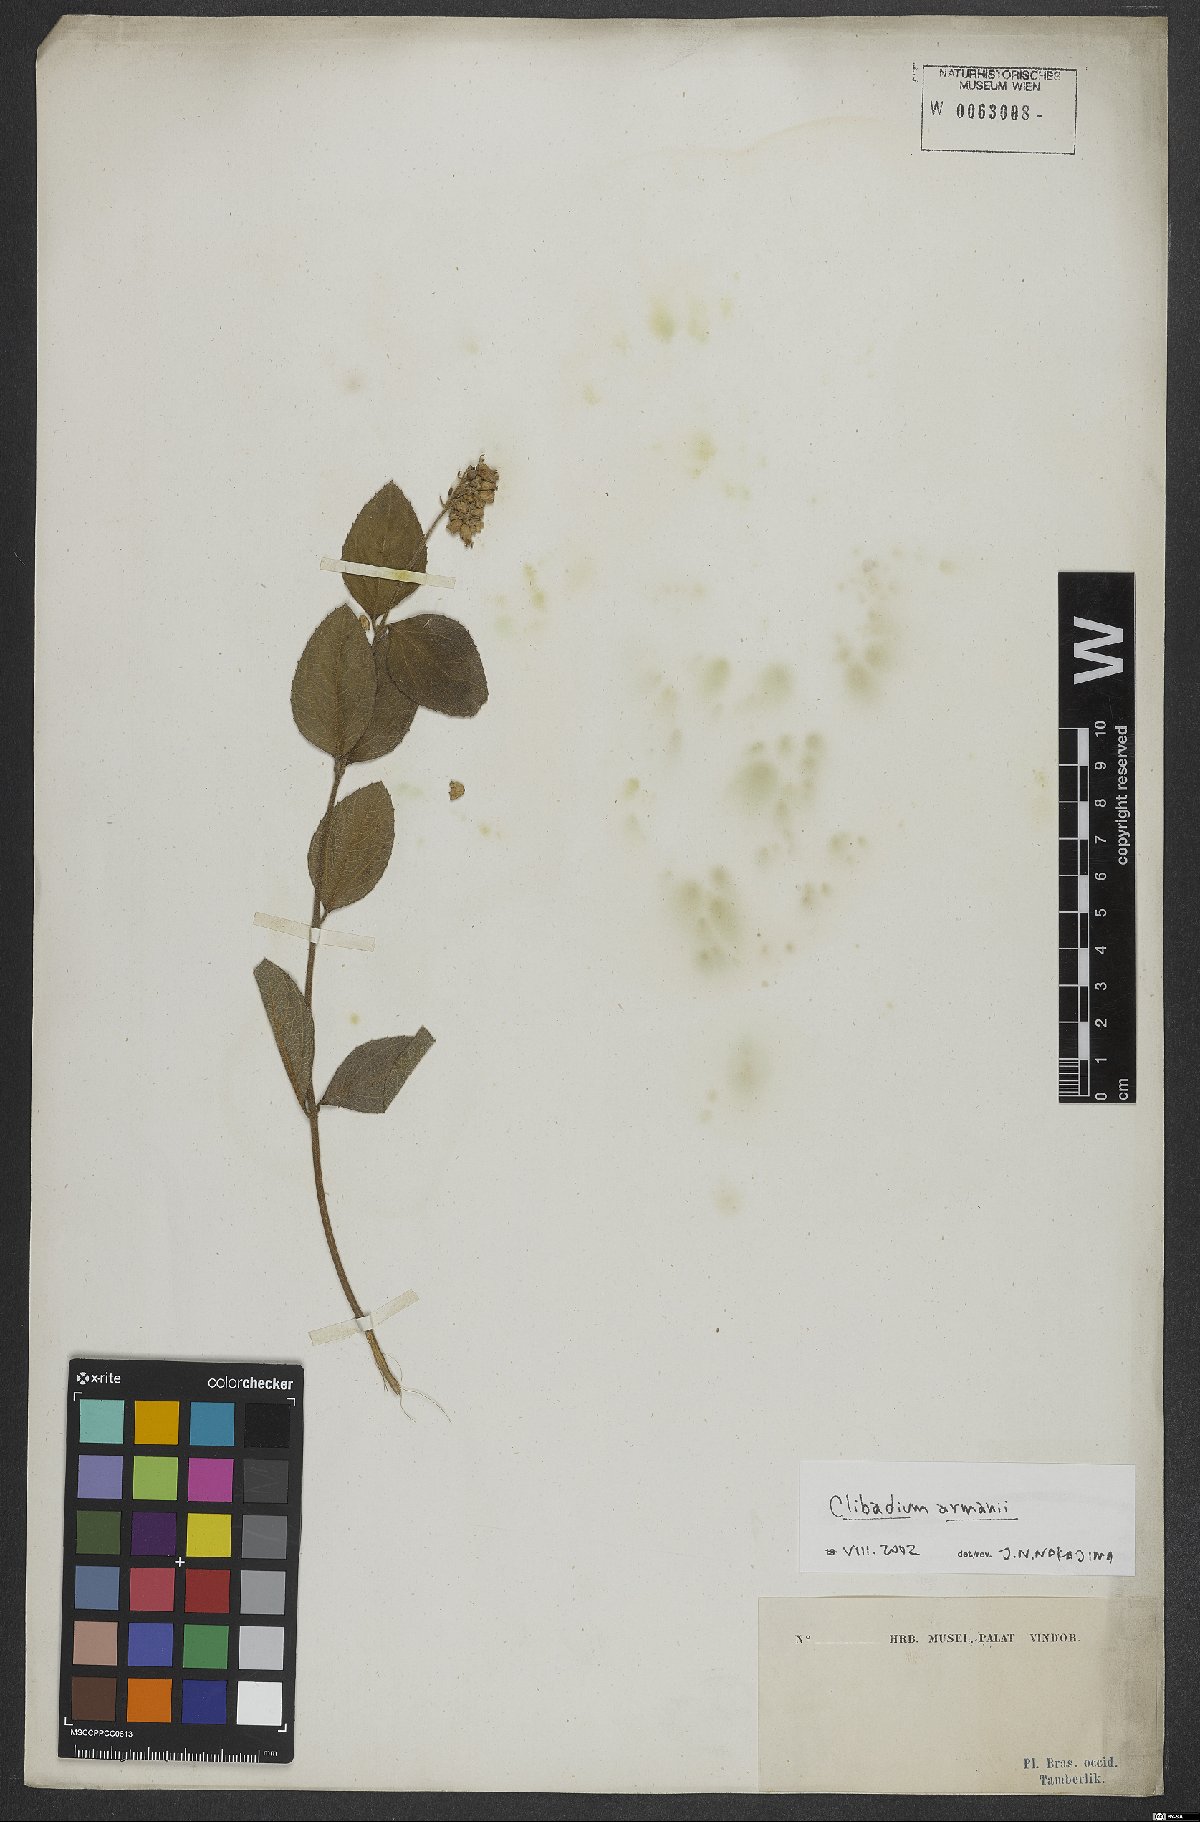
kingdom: Plantae
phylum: Tracheophyta
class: Magnoliopsida
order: Asterales
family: Asteraceae
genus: Clibadium
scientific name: Clibadium armanii
